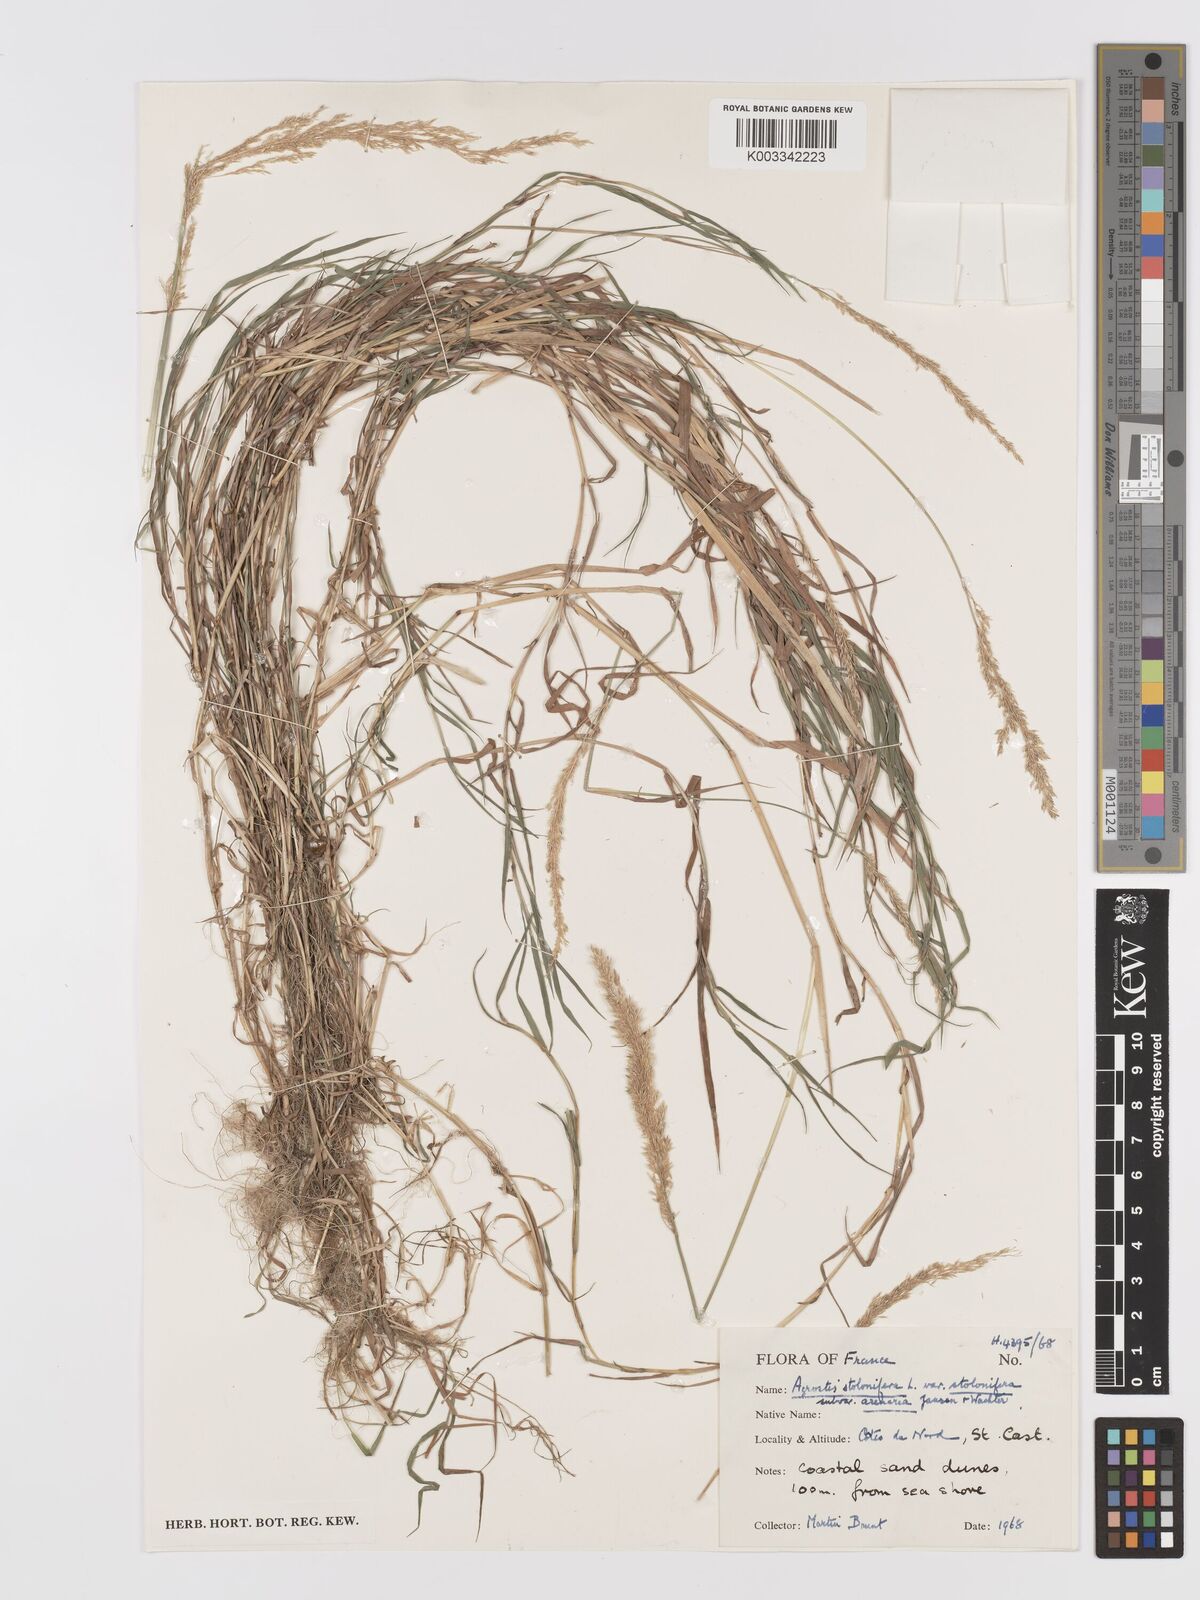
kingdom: Plantae
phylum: Tracheophyta
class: Liliopsida
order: Poales
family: Poaceae
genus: Agrostis
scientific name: Agrostis stolonifera
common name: Creeping bentgrass
